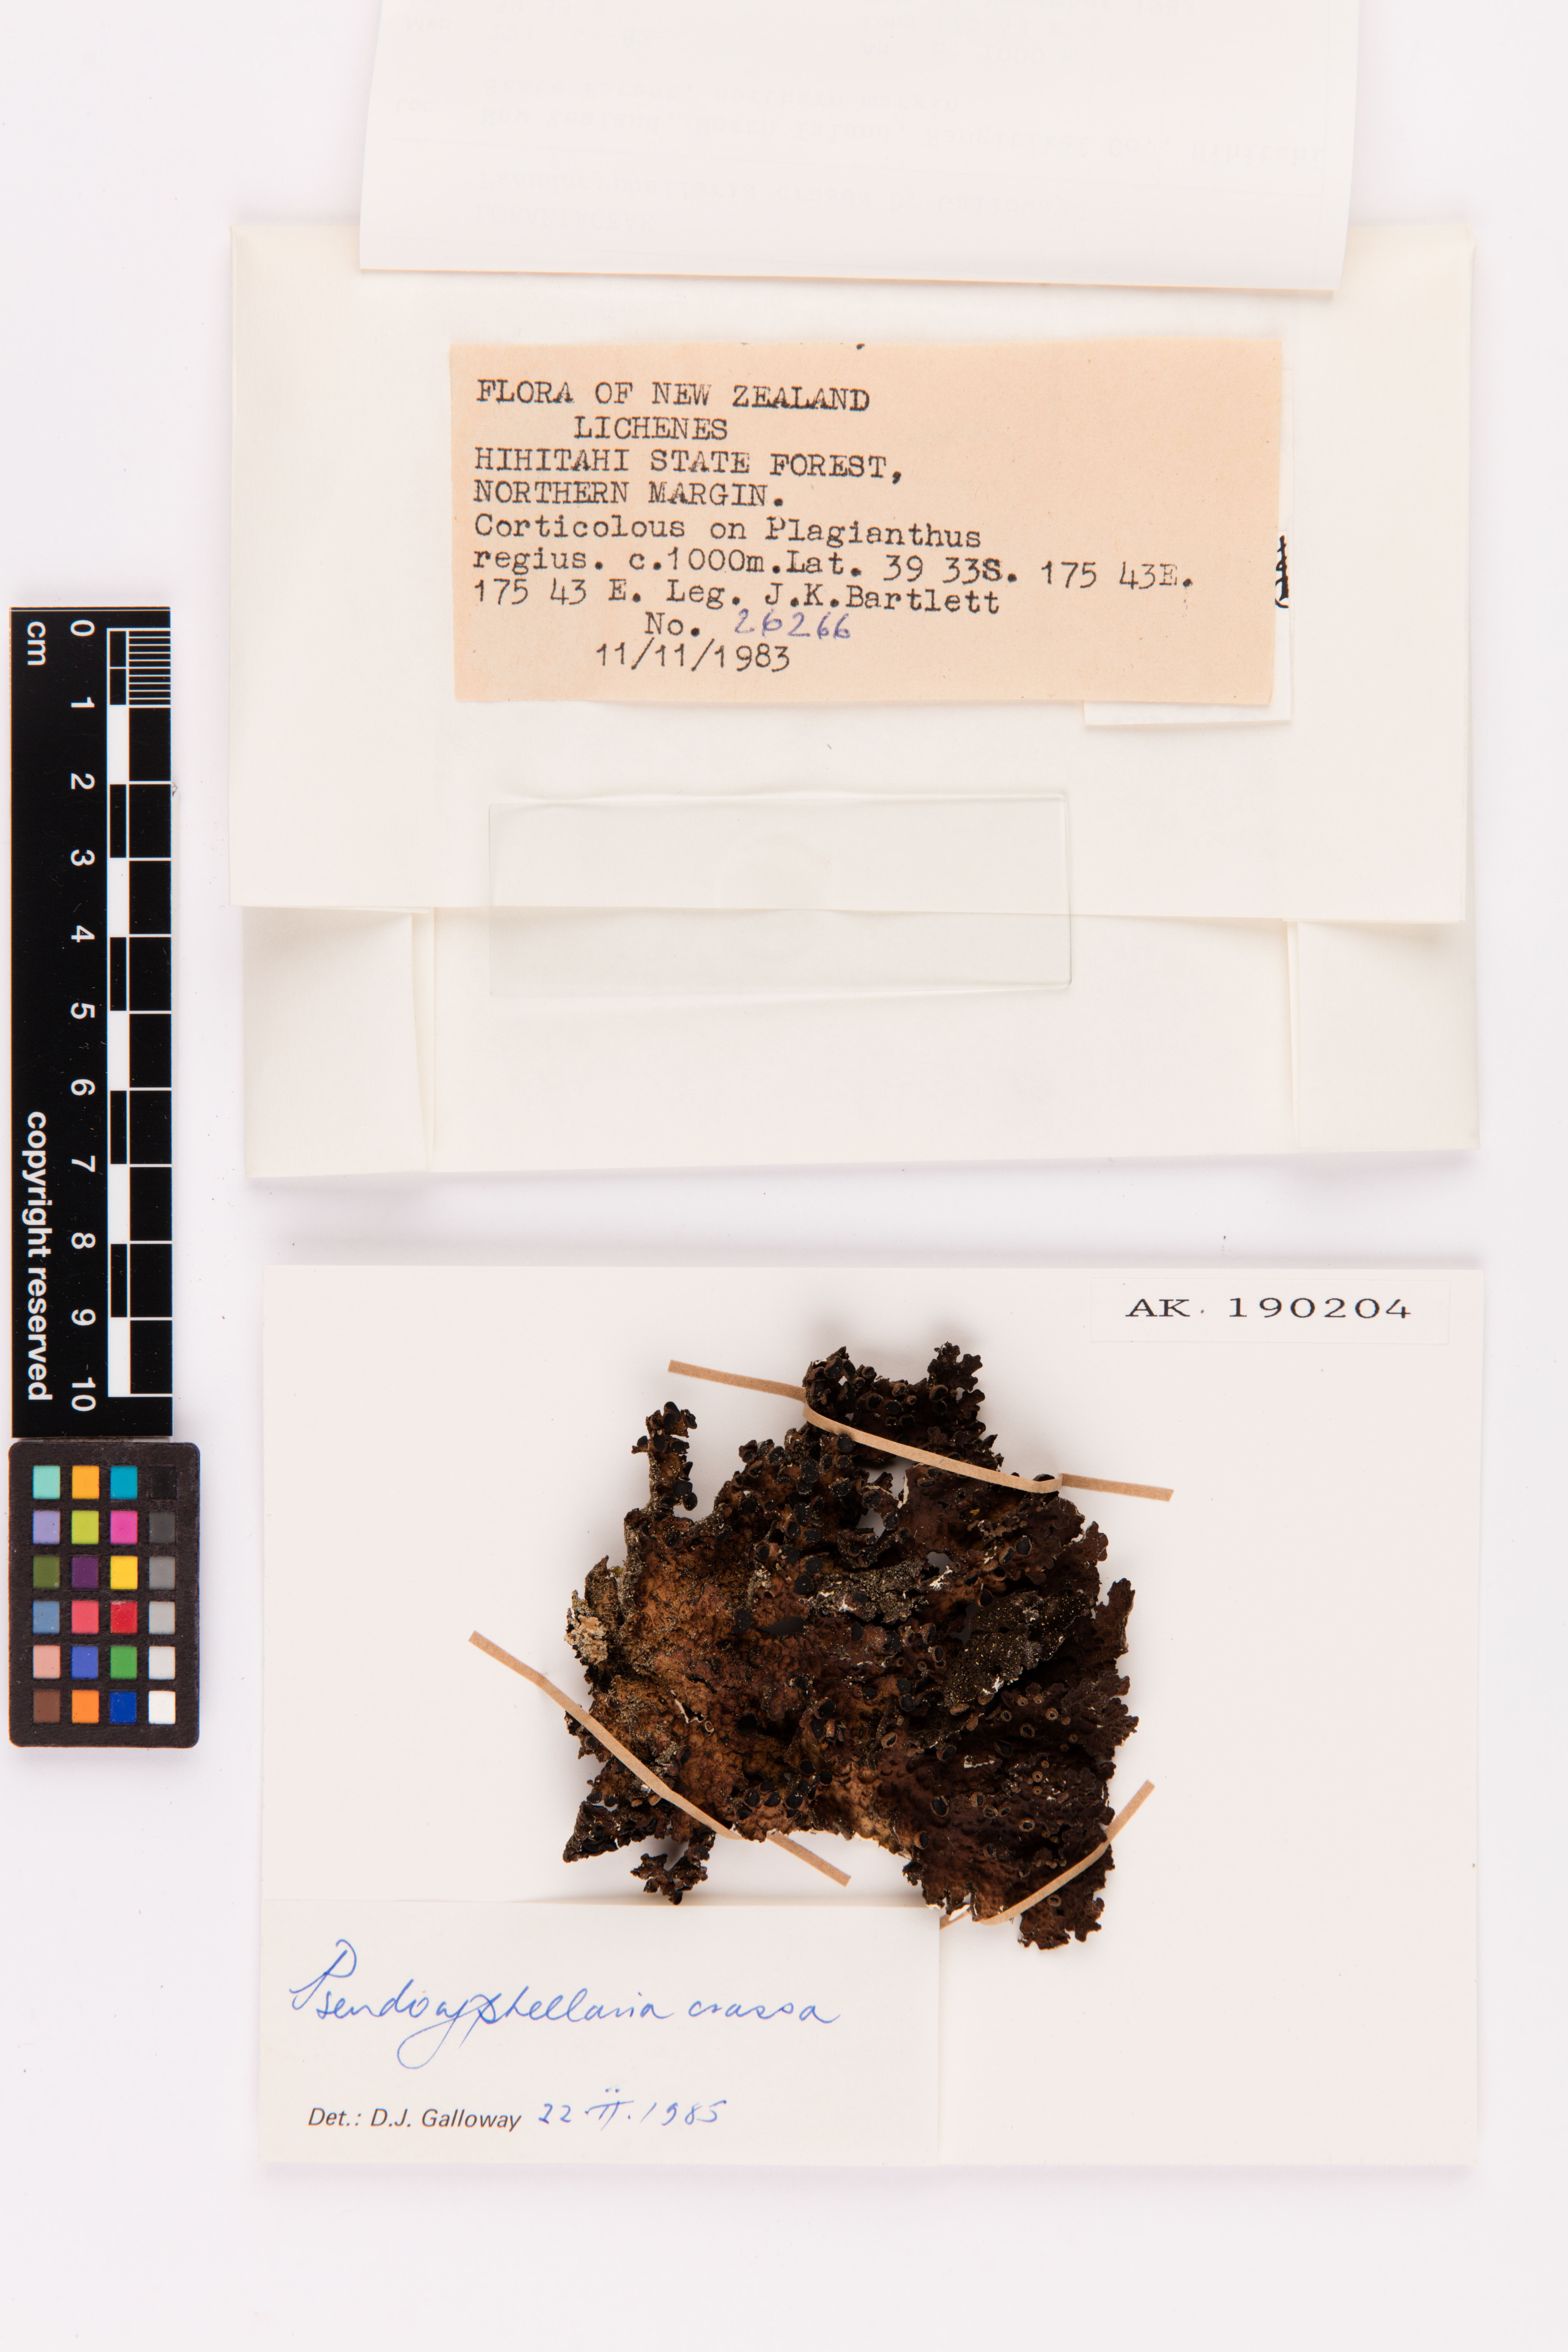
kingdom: Fungi
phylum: Ascomycota
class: Lecanoromycetes
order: Peltigerales
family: Lobariaceae
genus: Pseudocyphellaria
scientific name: Pseudocyphellaria crassa
